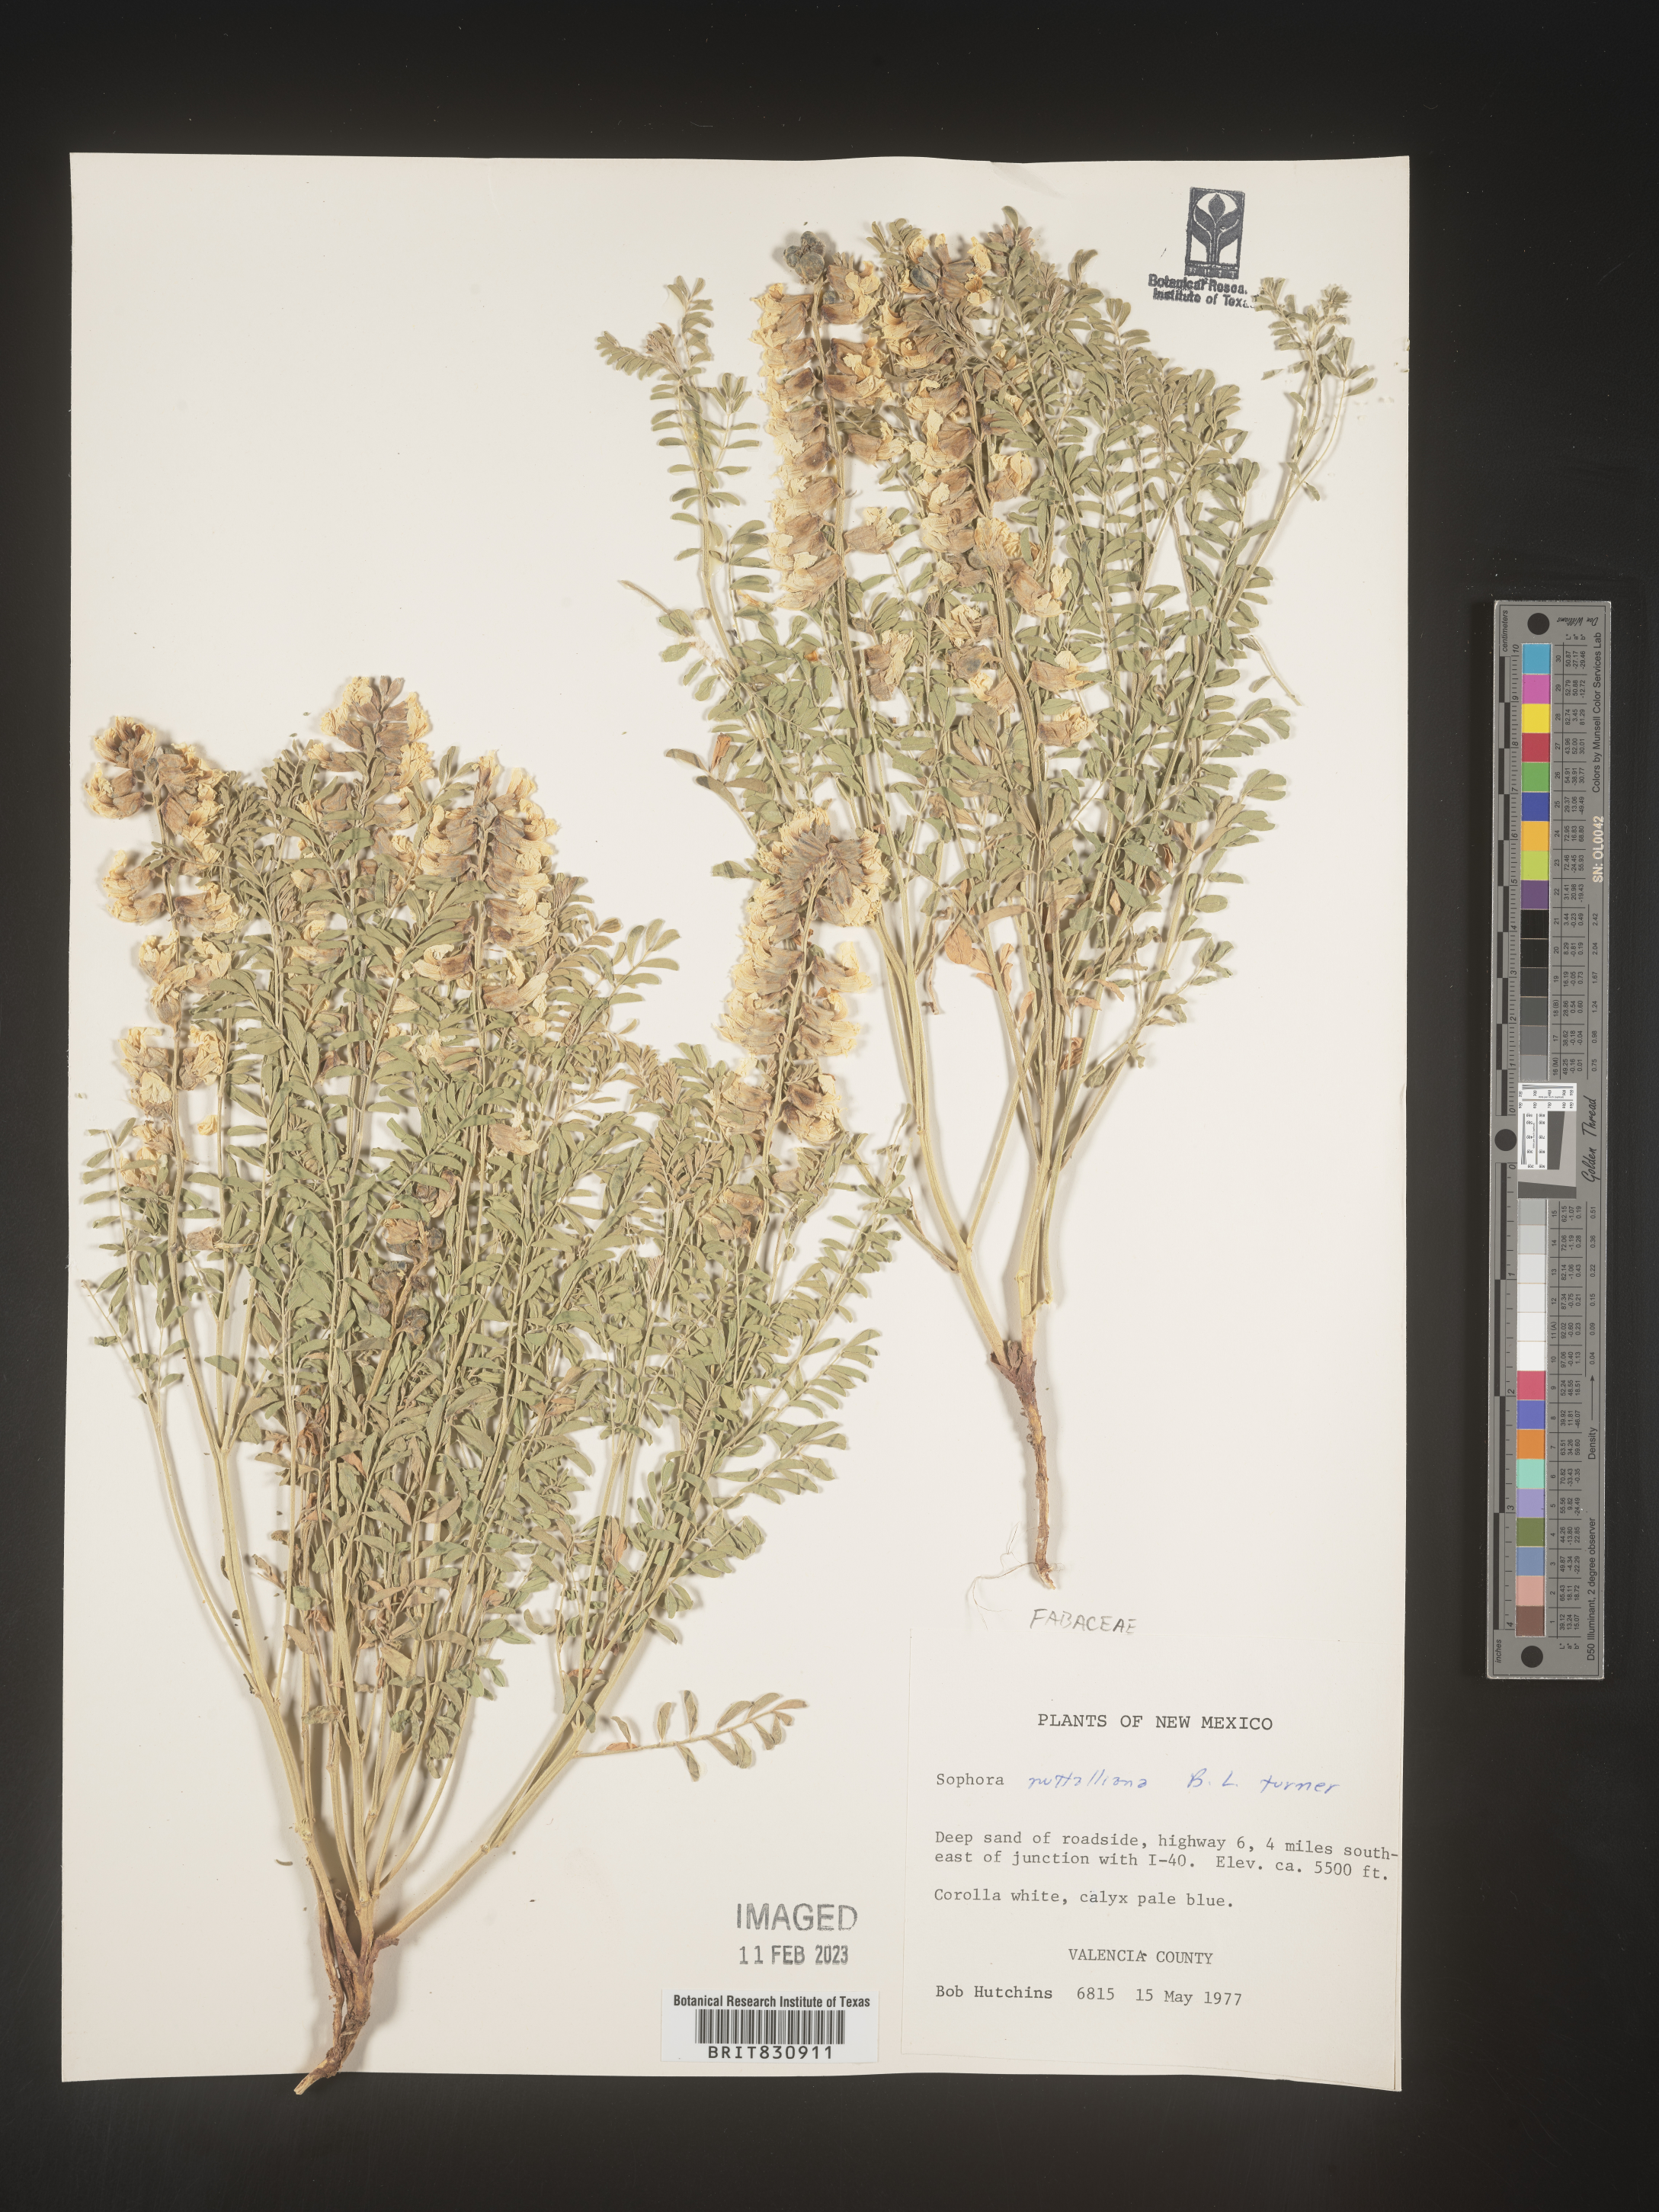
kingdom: Plantae
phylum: Tracheophyta
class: Magnoliopsida
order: Fabales
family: Fabaceae
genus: Sophora
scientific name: Sophora nuttalliana
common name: Silky sophora
